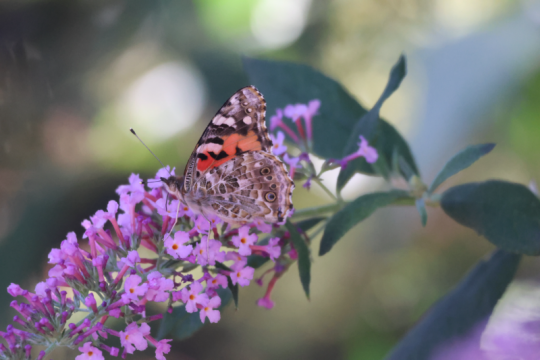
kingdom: Animalia
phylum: Arthropoda
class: Insecta
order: Lepidoptera
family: Nymphalidae
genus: Vanessa
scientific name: Vanessa cardui
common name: Painted Lady
